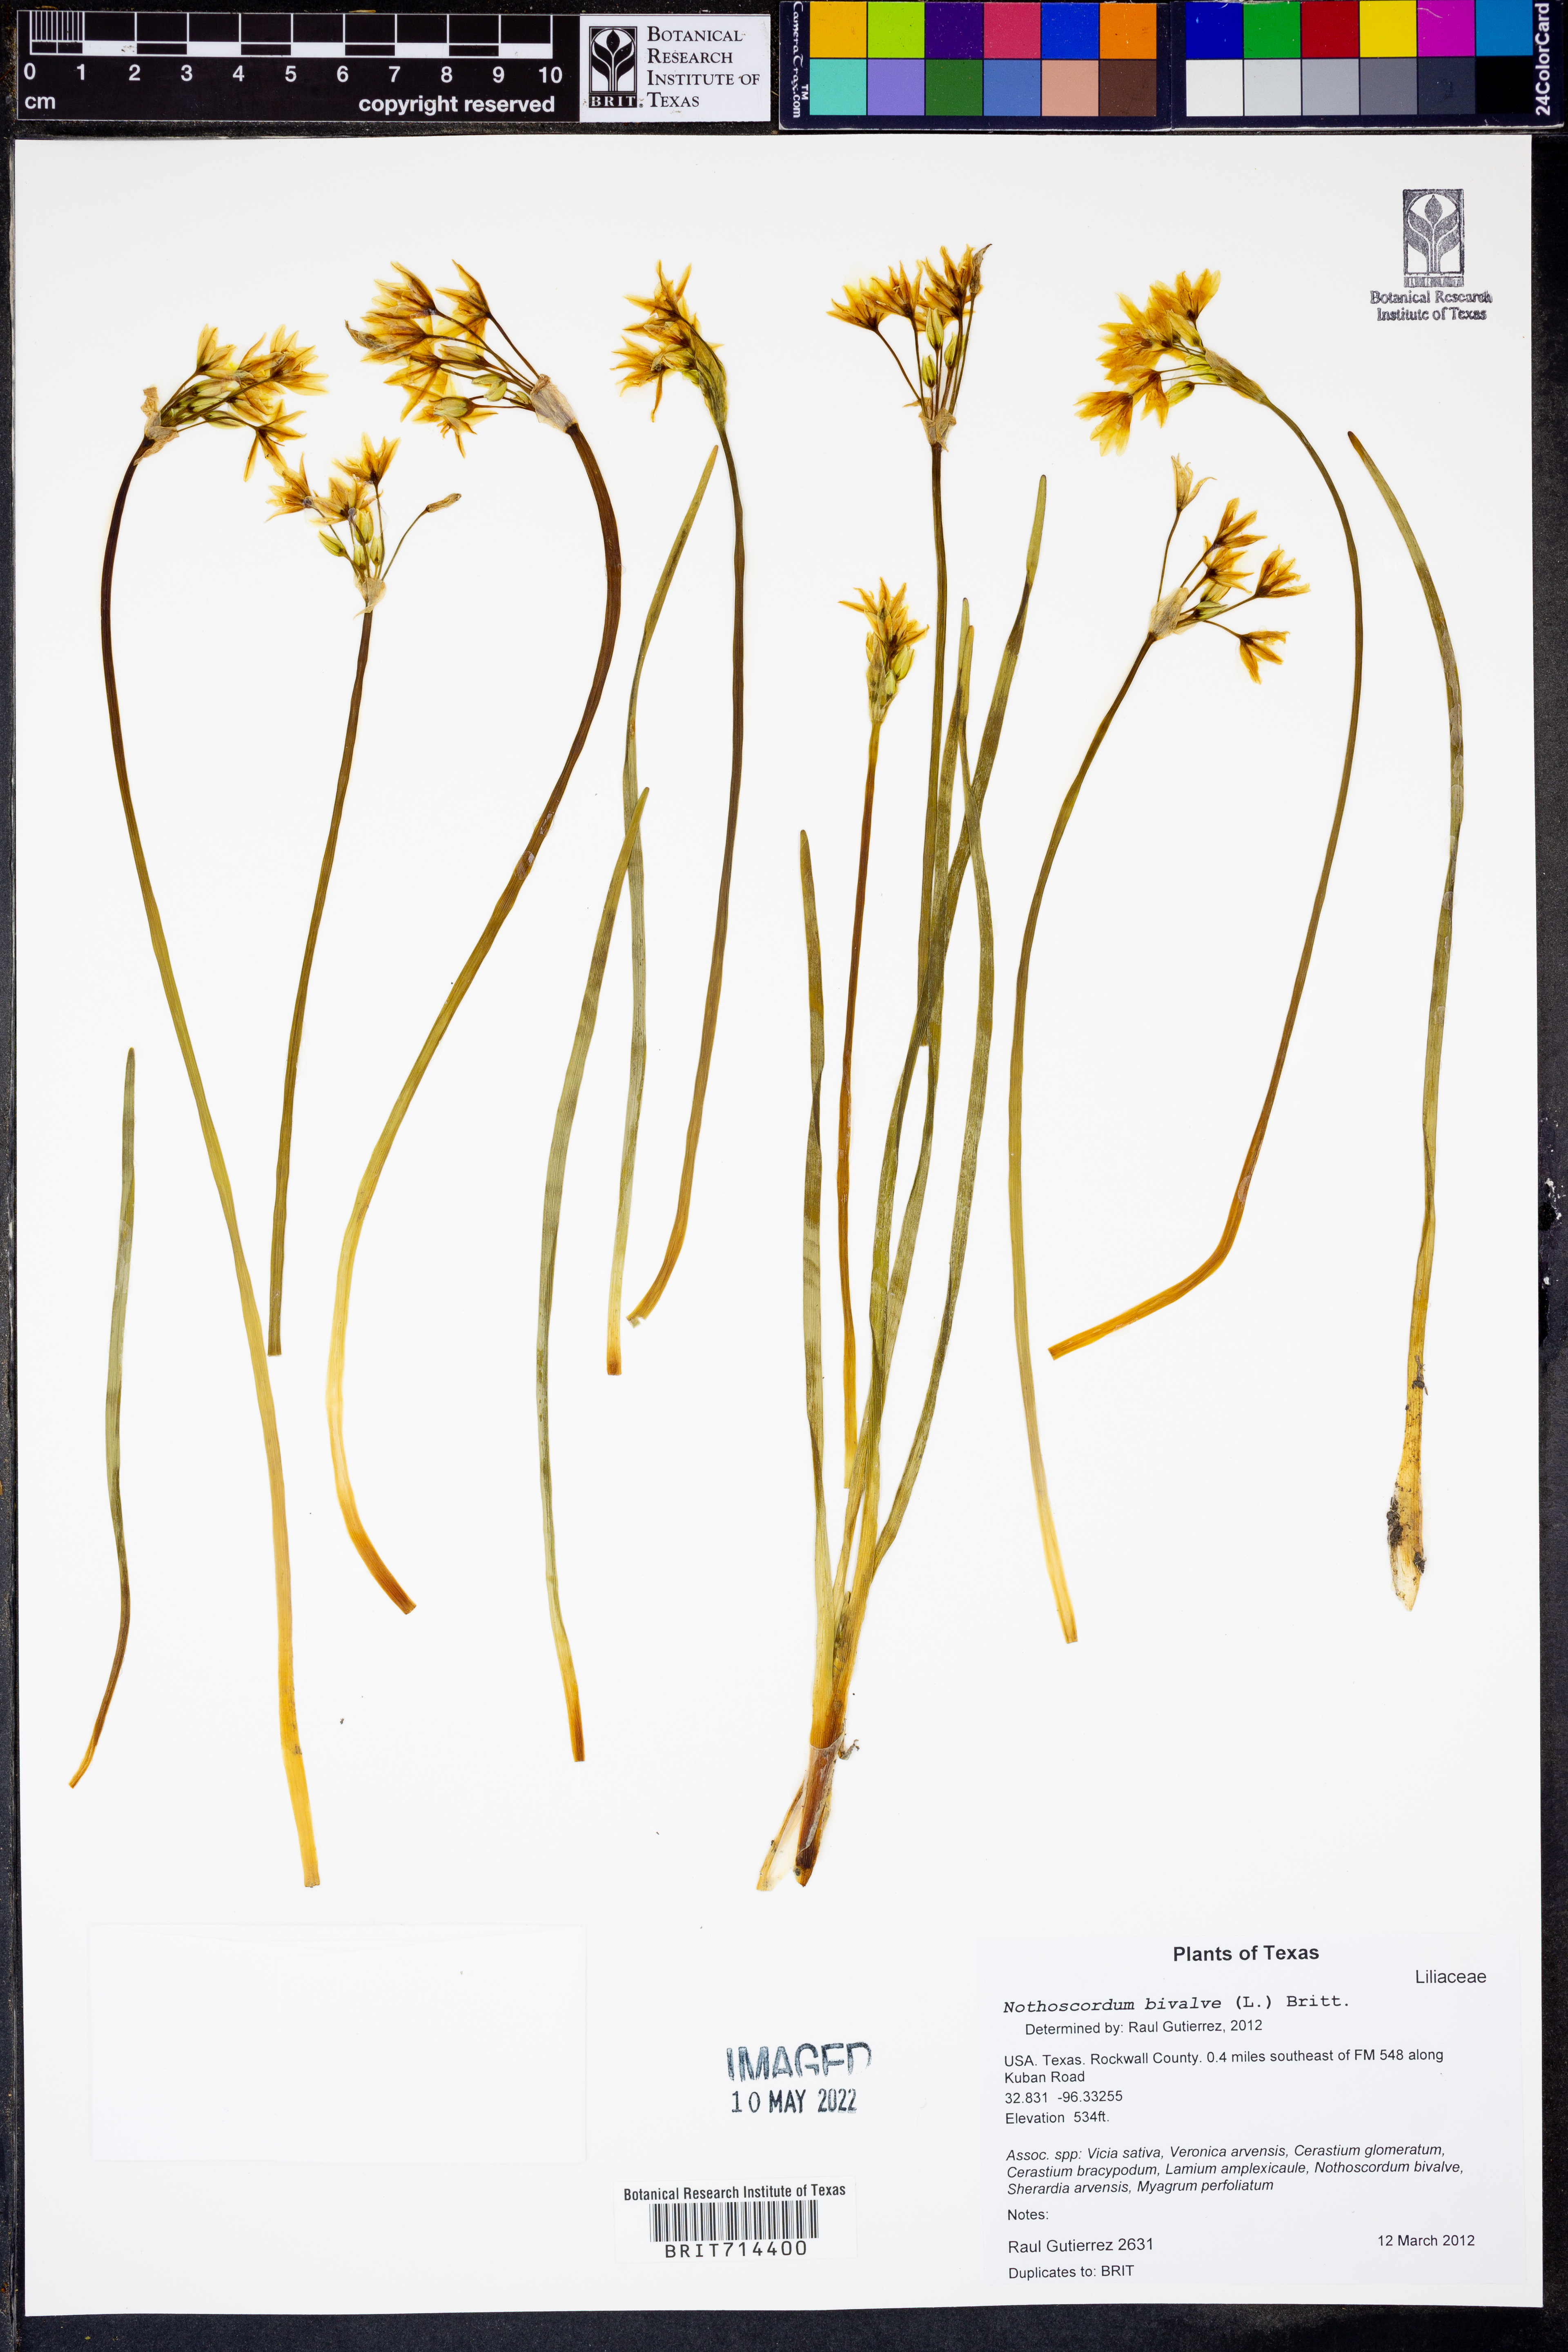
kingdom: Plantae
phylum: Tracheophyta
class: Liliopsida
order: Asparagales
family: Amaryllidaceae
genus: Nothoscordum
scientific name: Nothoscordum bivalve
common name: Crow-poison
